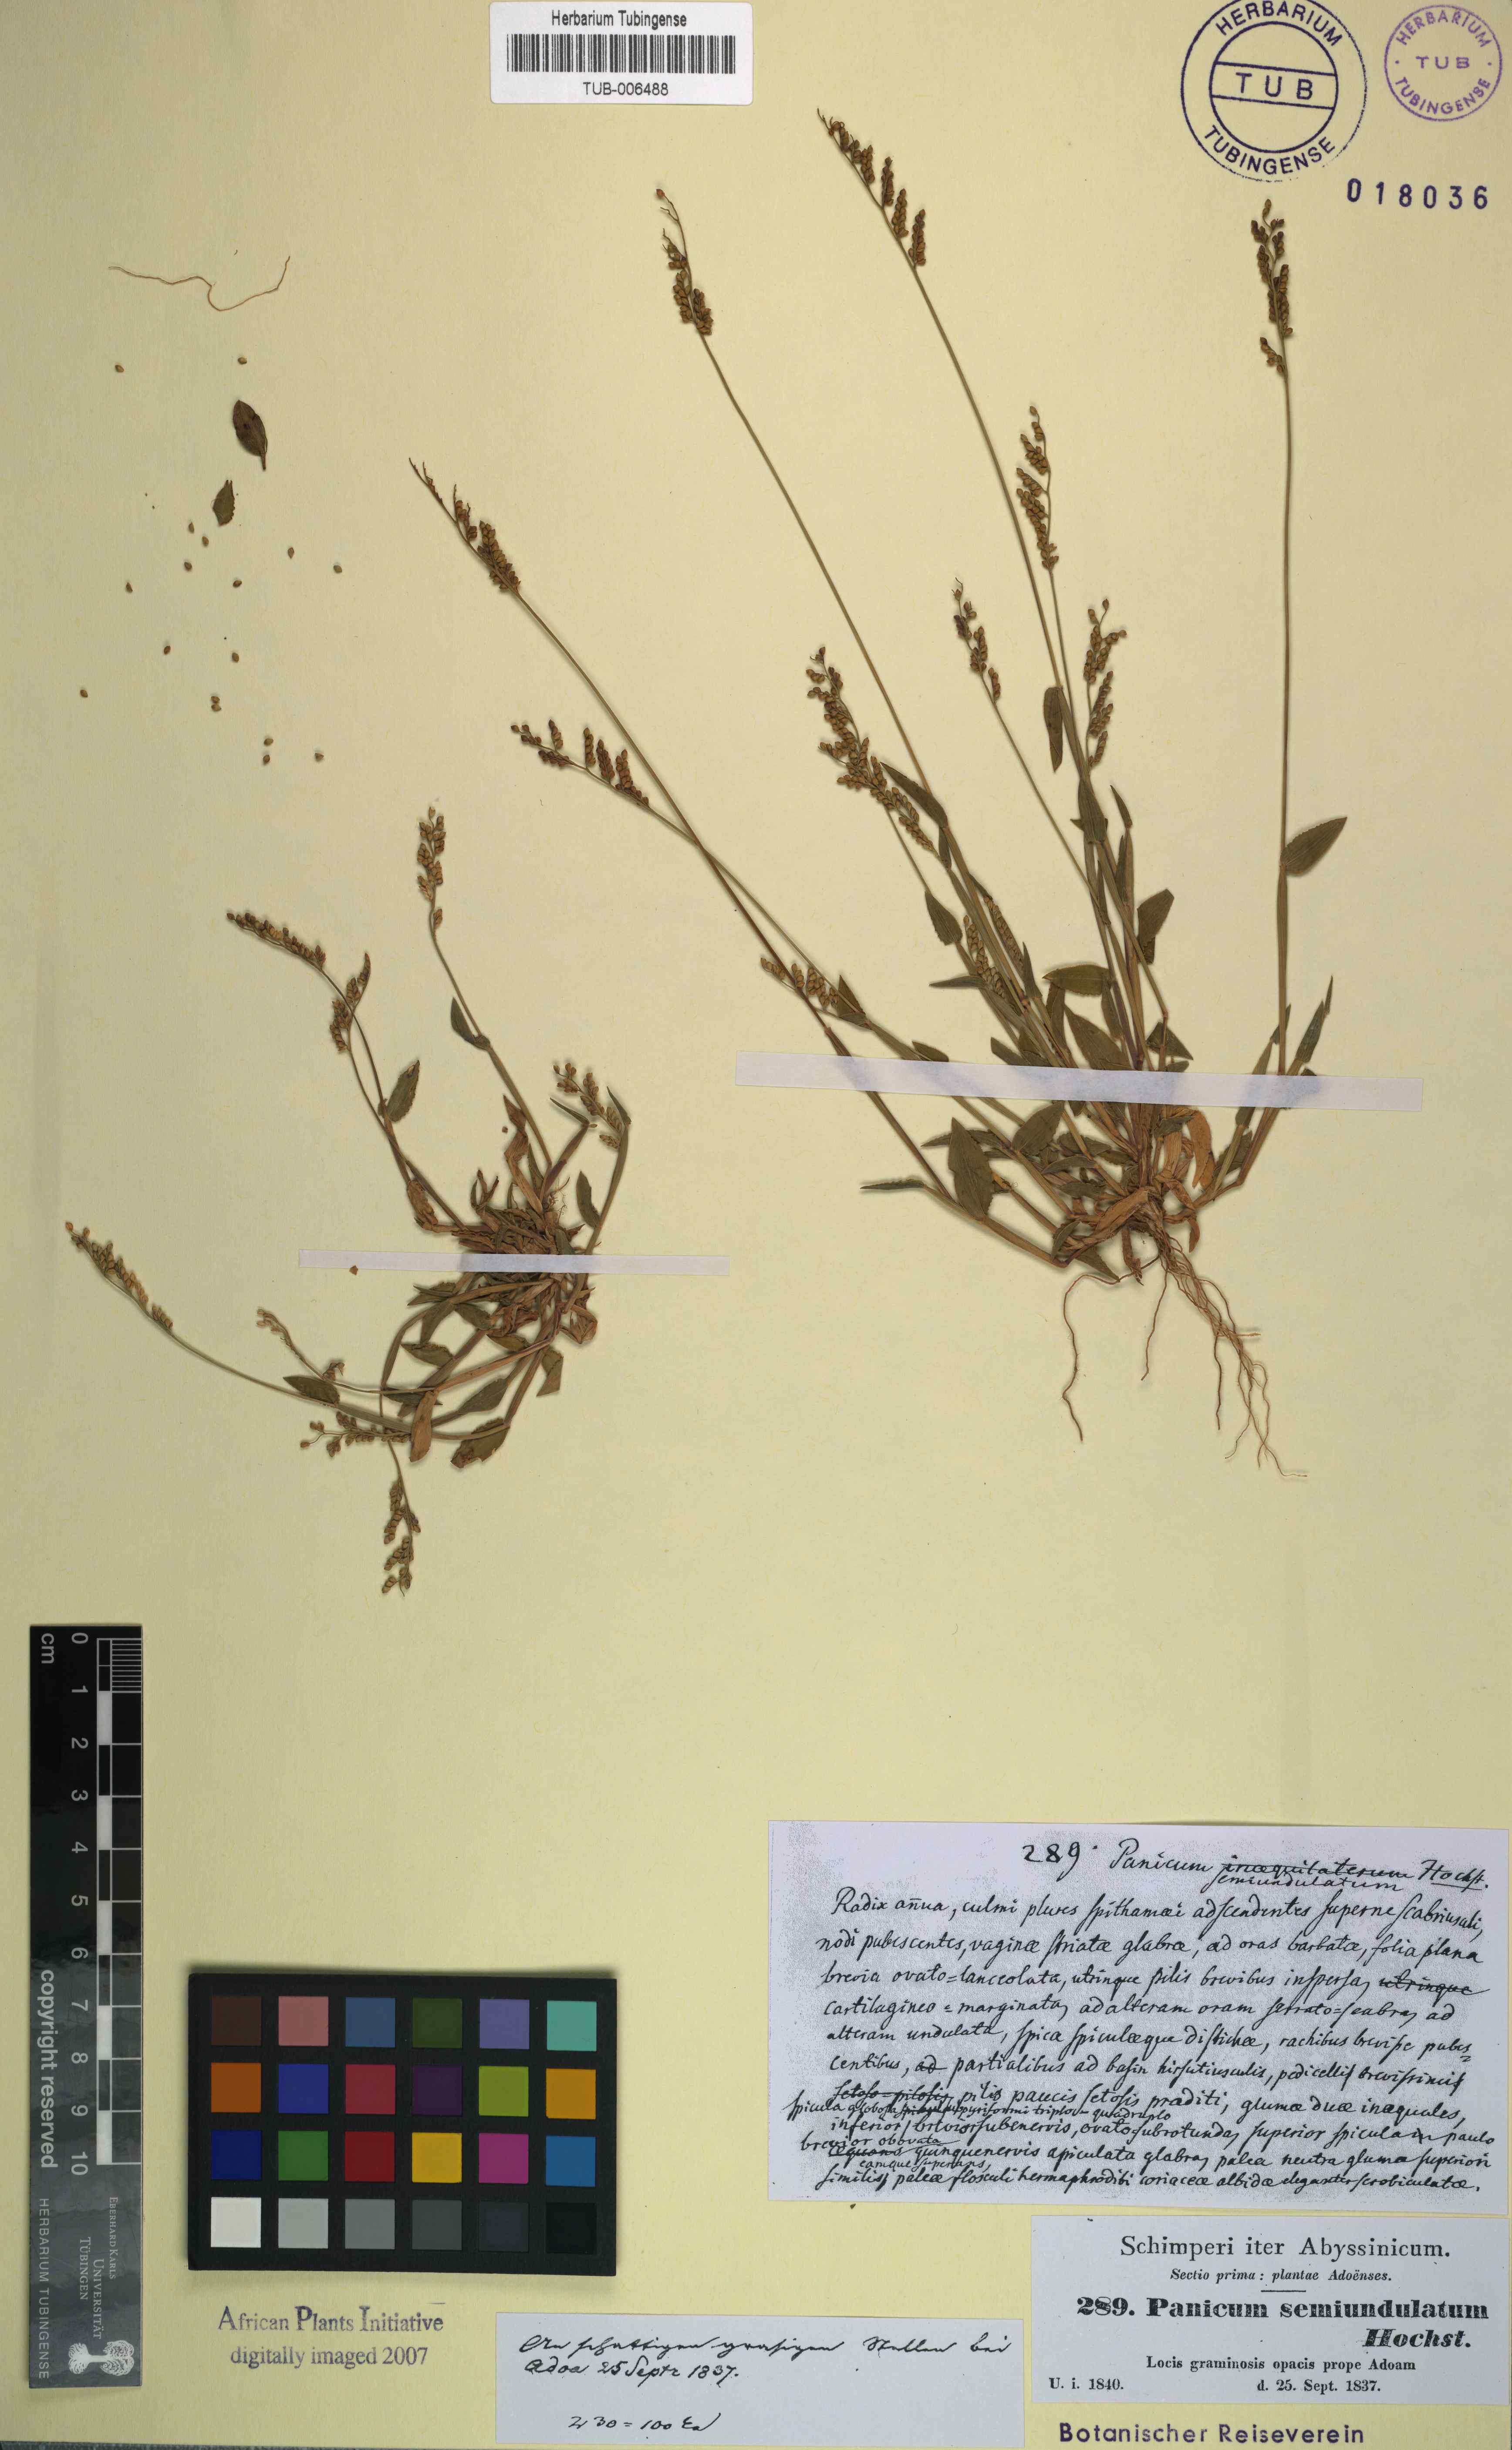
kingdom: Plantae
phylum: Tracheophyta
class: Liliopsida
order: Poales
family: Poaceae
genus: Panicum
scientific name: Panicum semiundulatum
